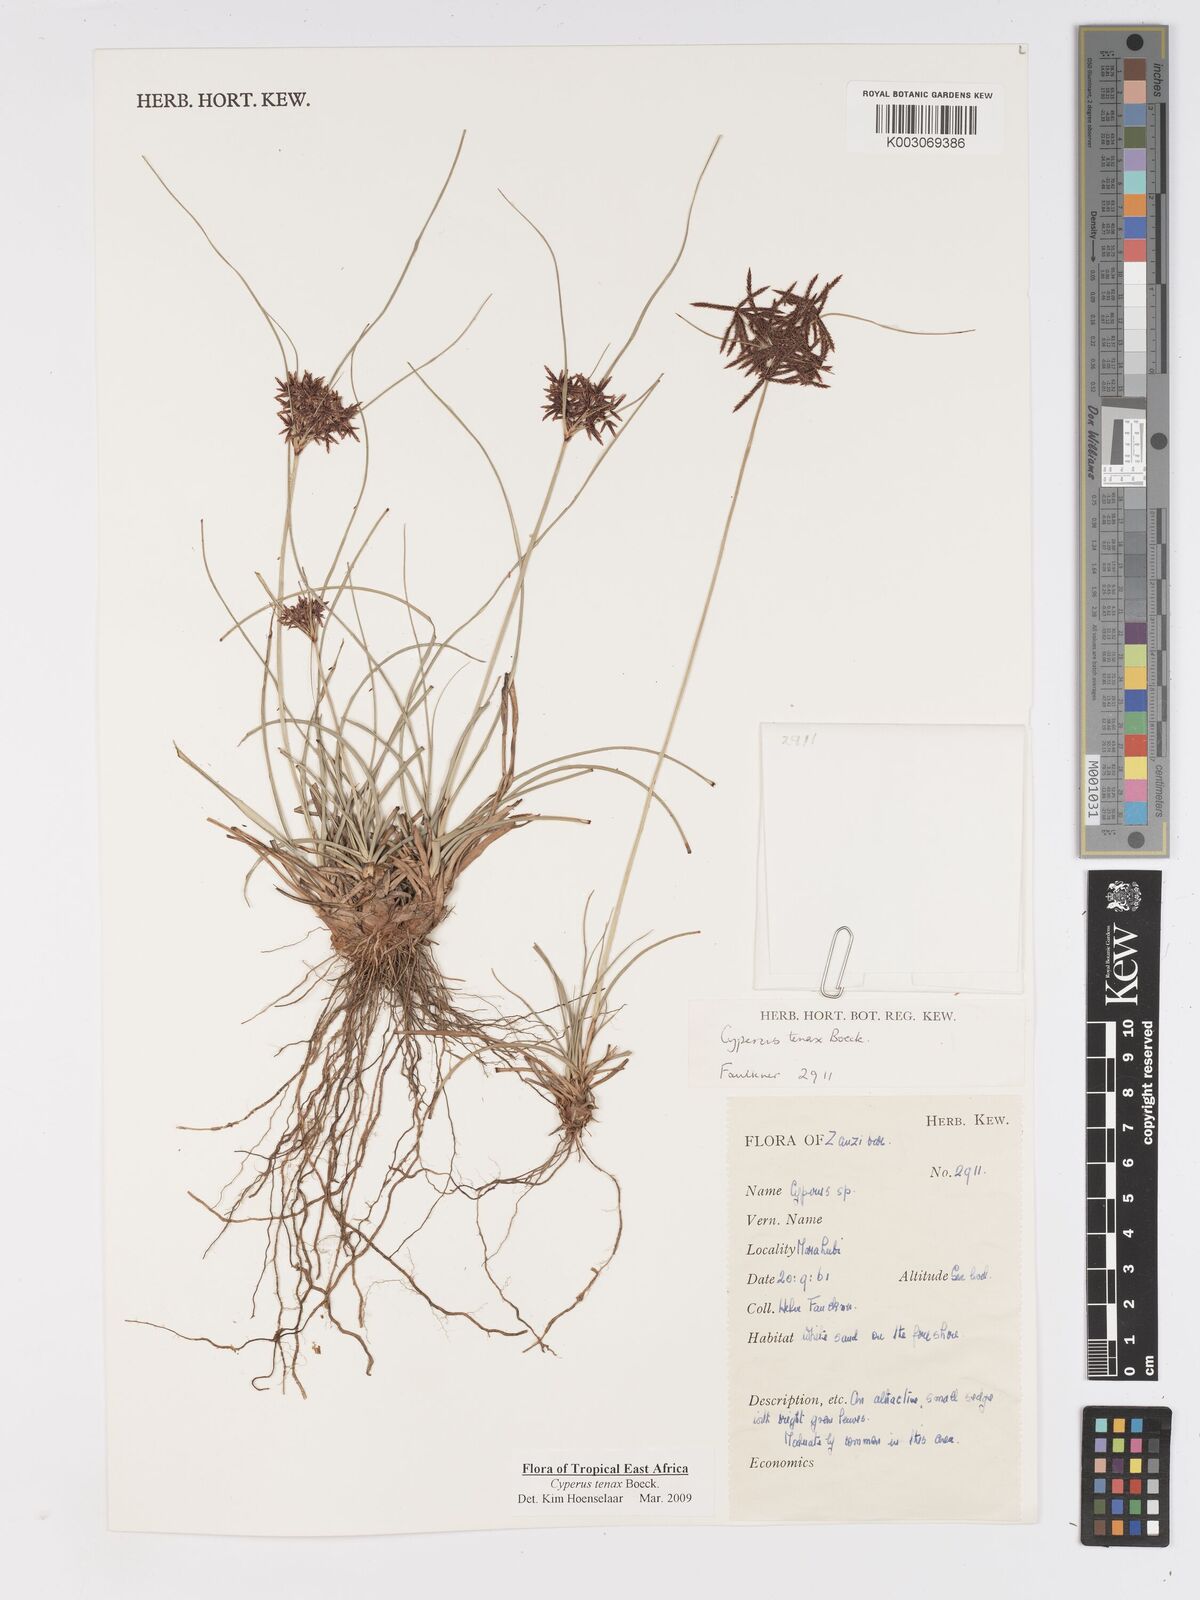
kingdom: Plantae
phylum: Tracheophyta
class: Liliopsida
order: Poales
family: Cyperaceae
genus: Cyperus
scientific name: Cyperus tenax
